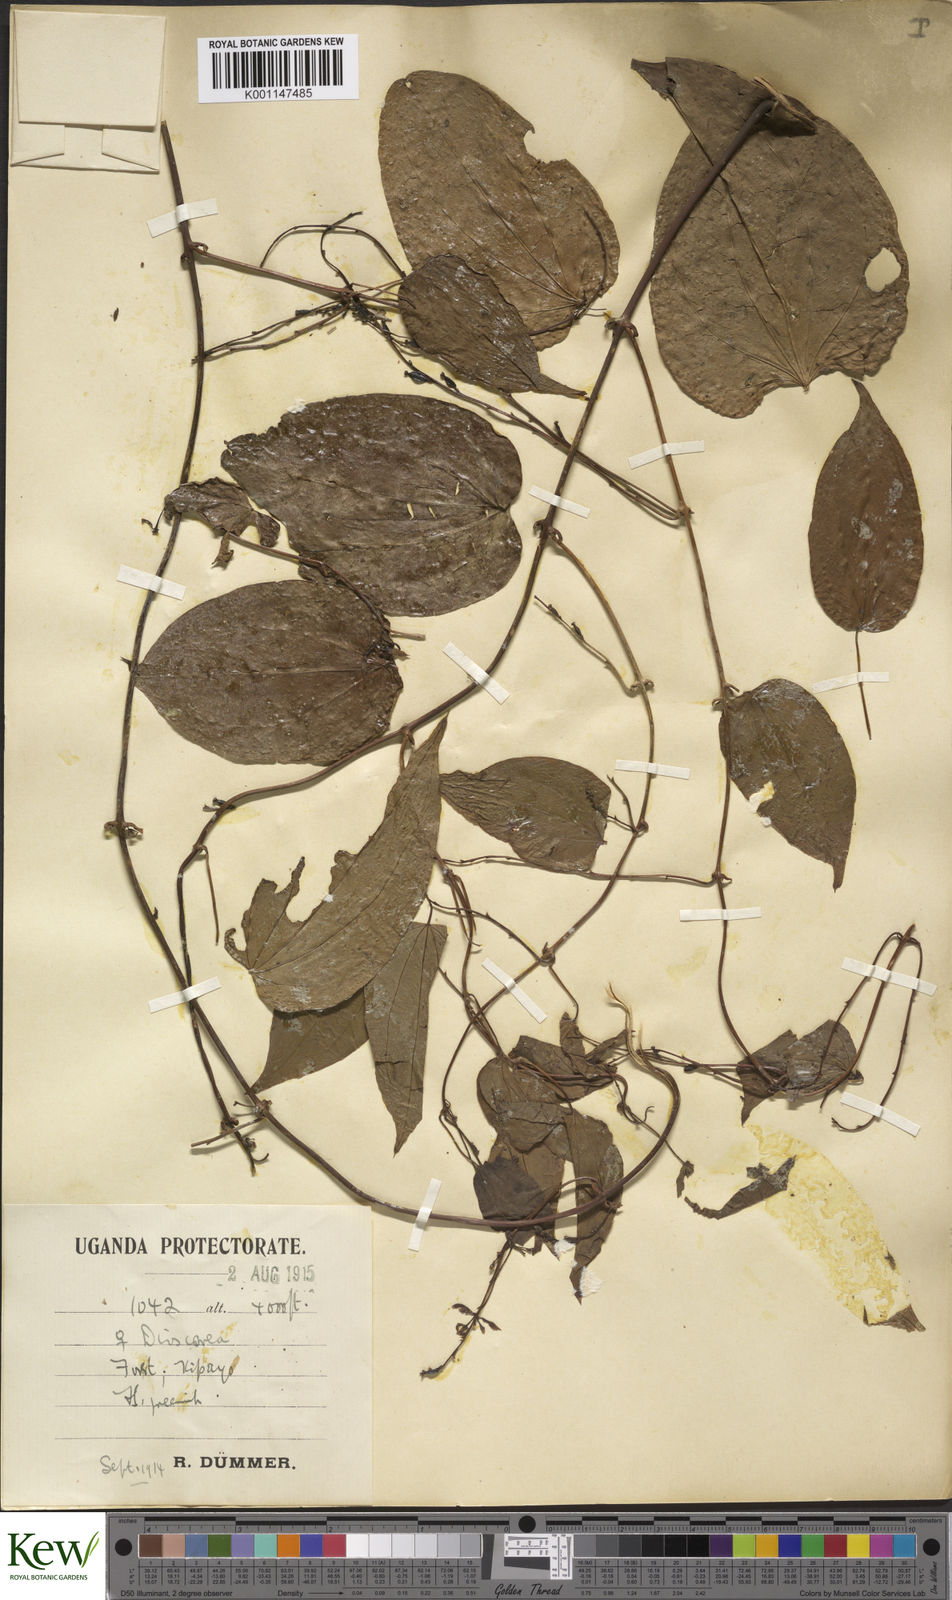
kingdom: Plantae
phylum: Tracheophyta
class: Liliopsida
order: Dioscoreales
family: Dioscoreaceae
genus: Dioscorea
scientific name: Dioscorea
